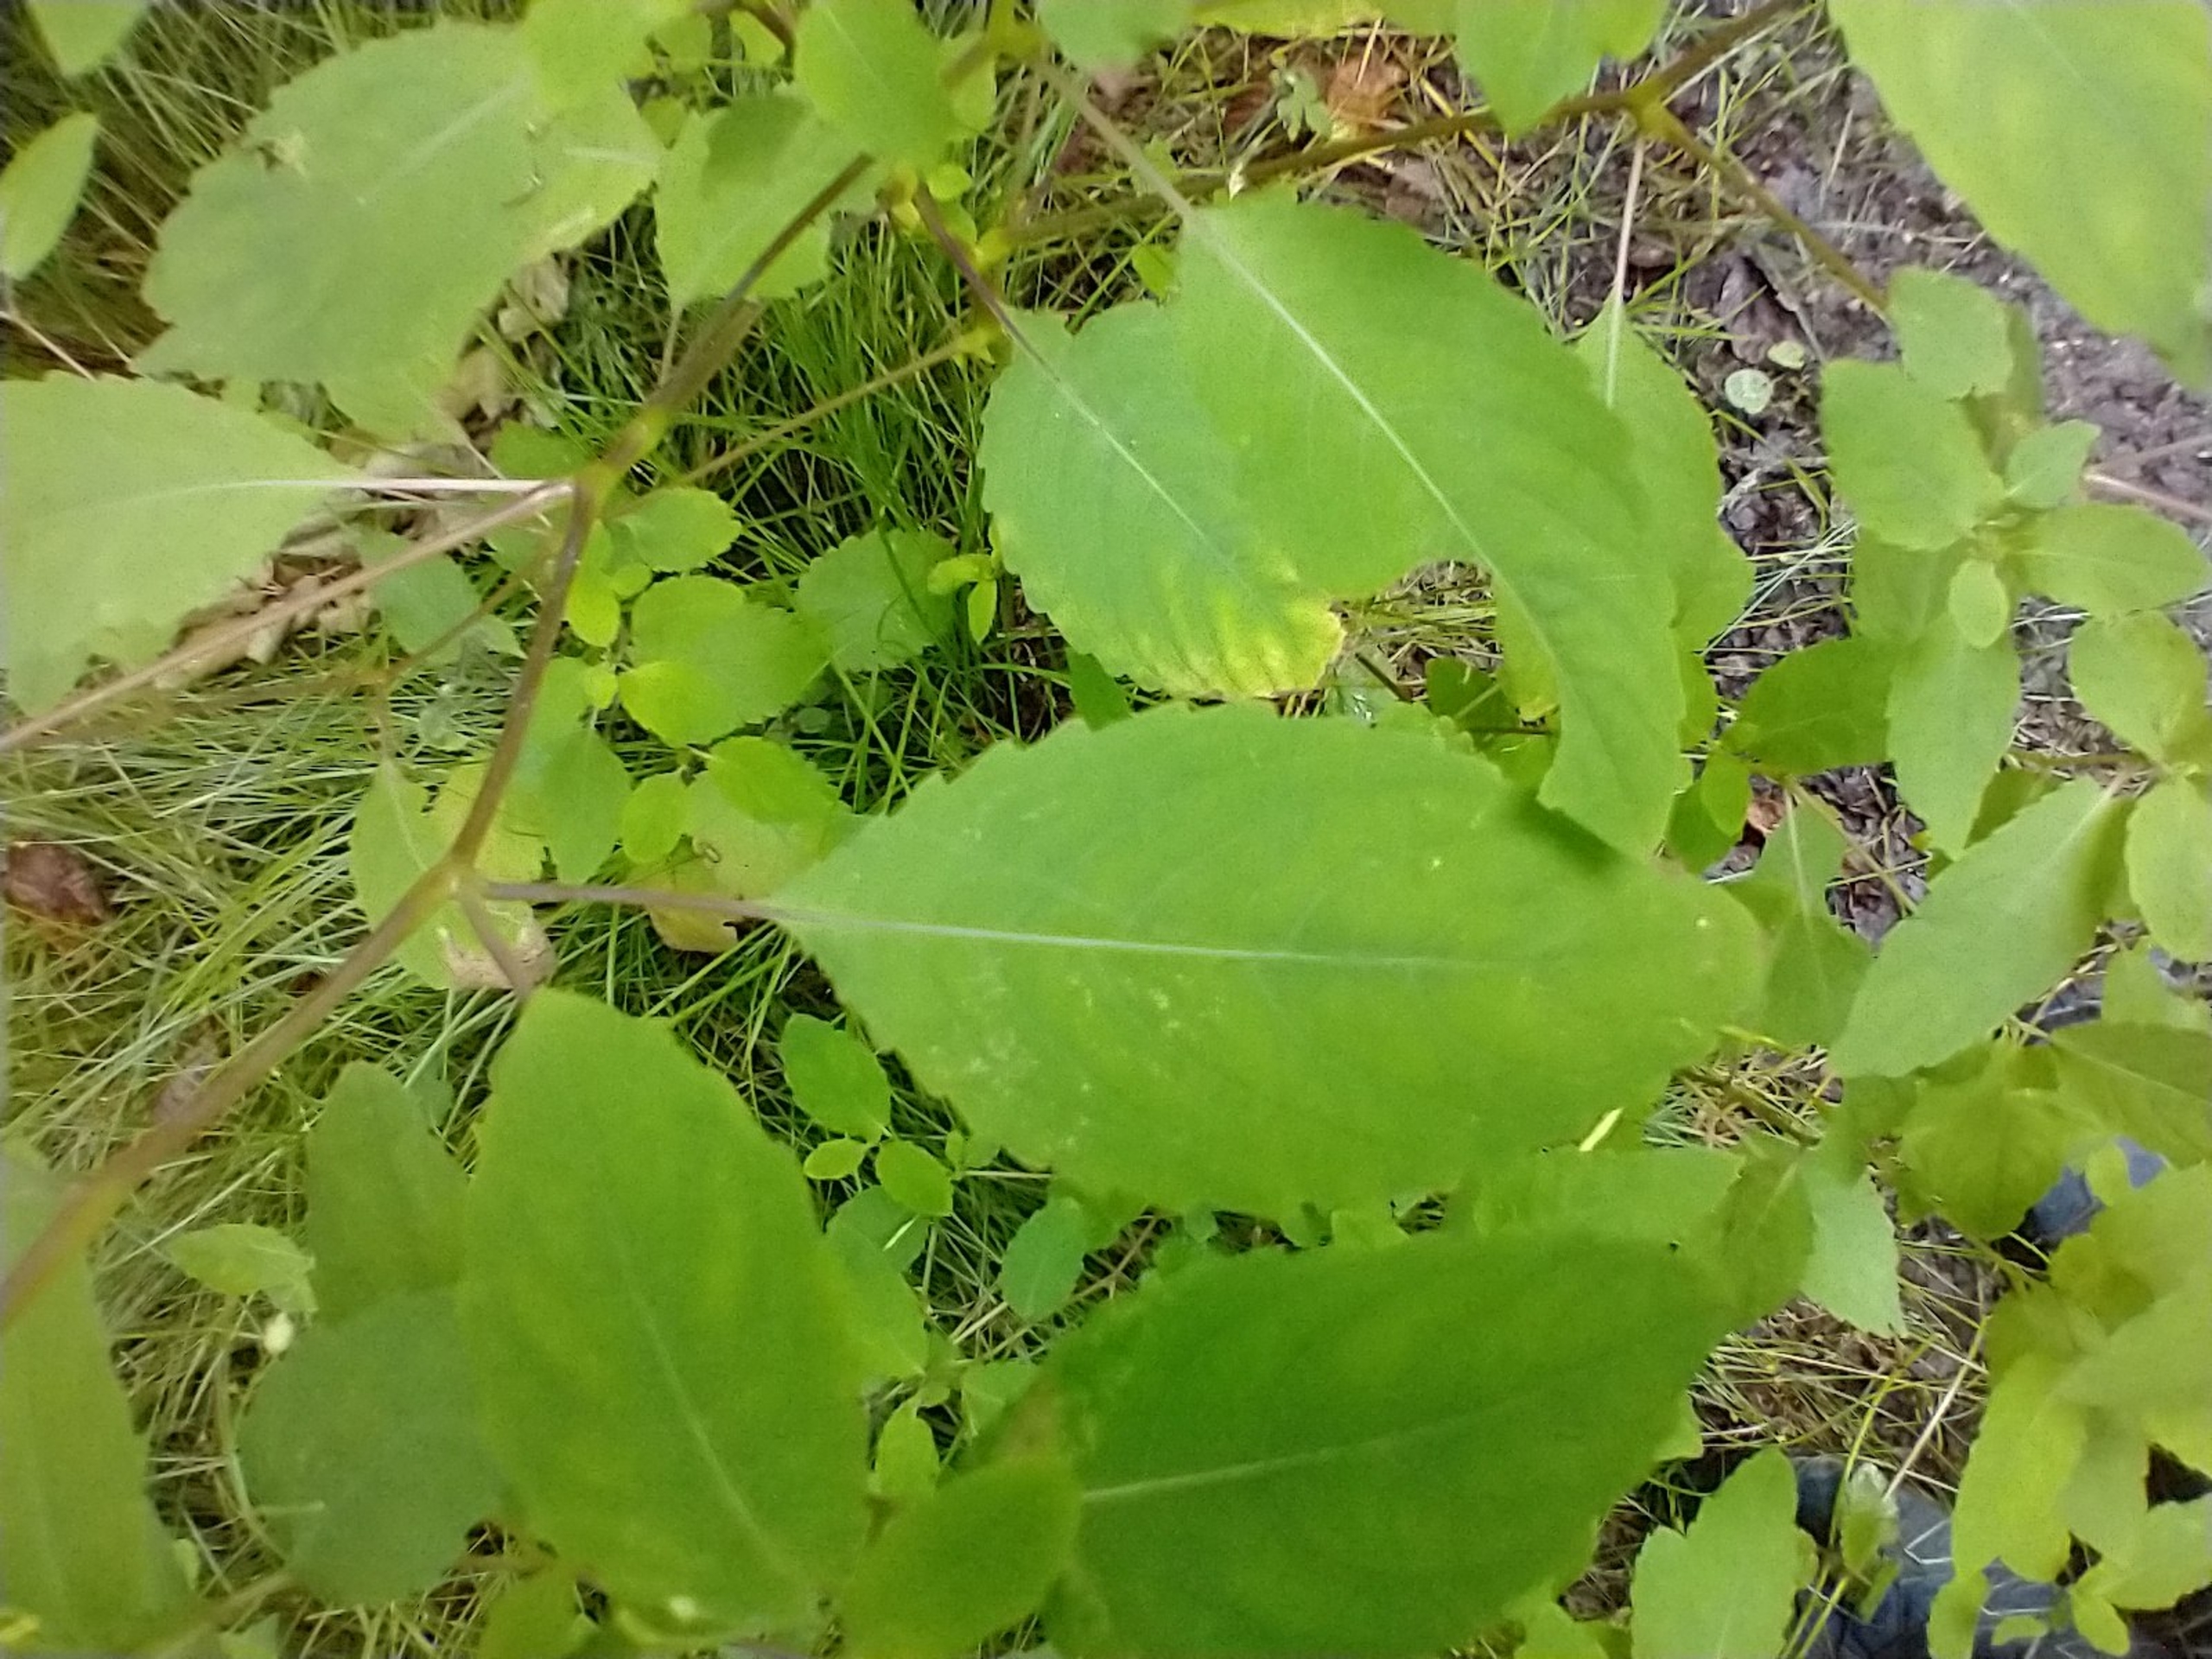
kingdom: Plantae
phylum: Tracheophyta
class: Magnoliopsida
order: Ericales
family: Balsaminaceae
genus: Impatiens
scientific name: Impatiens noli-tangere
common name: Spring-balsamin
